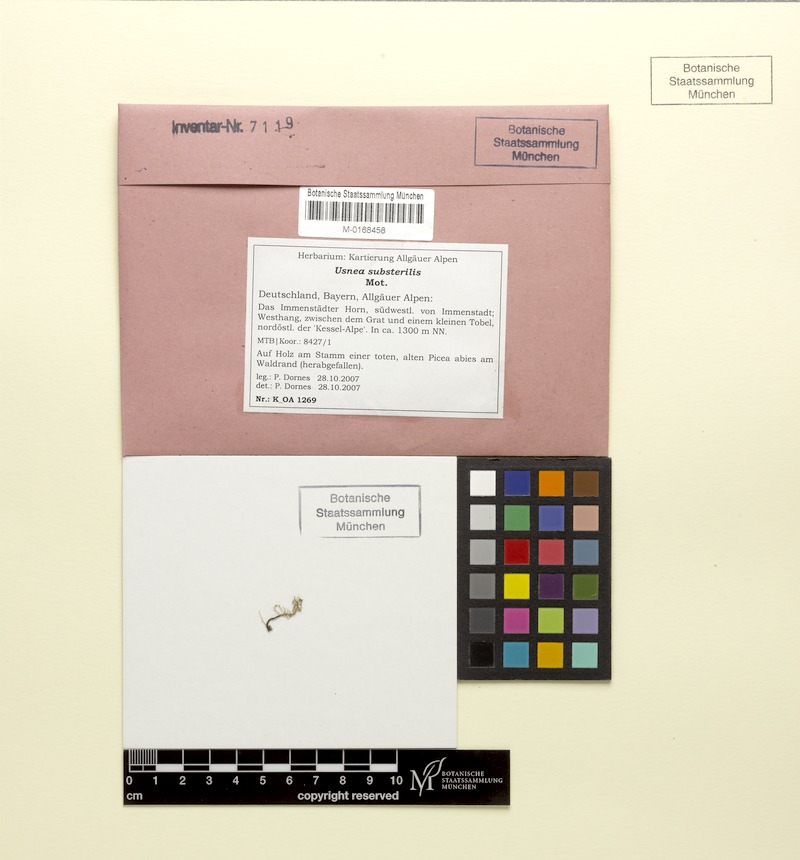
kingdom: Fungi
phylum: Ascomycota
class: Lecanoromycetes
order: Lecanorales
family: Parmeliaceae
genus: Usnea
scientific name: Usnea substerilis
